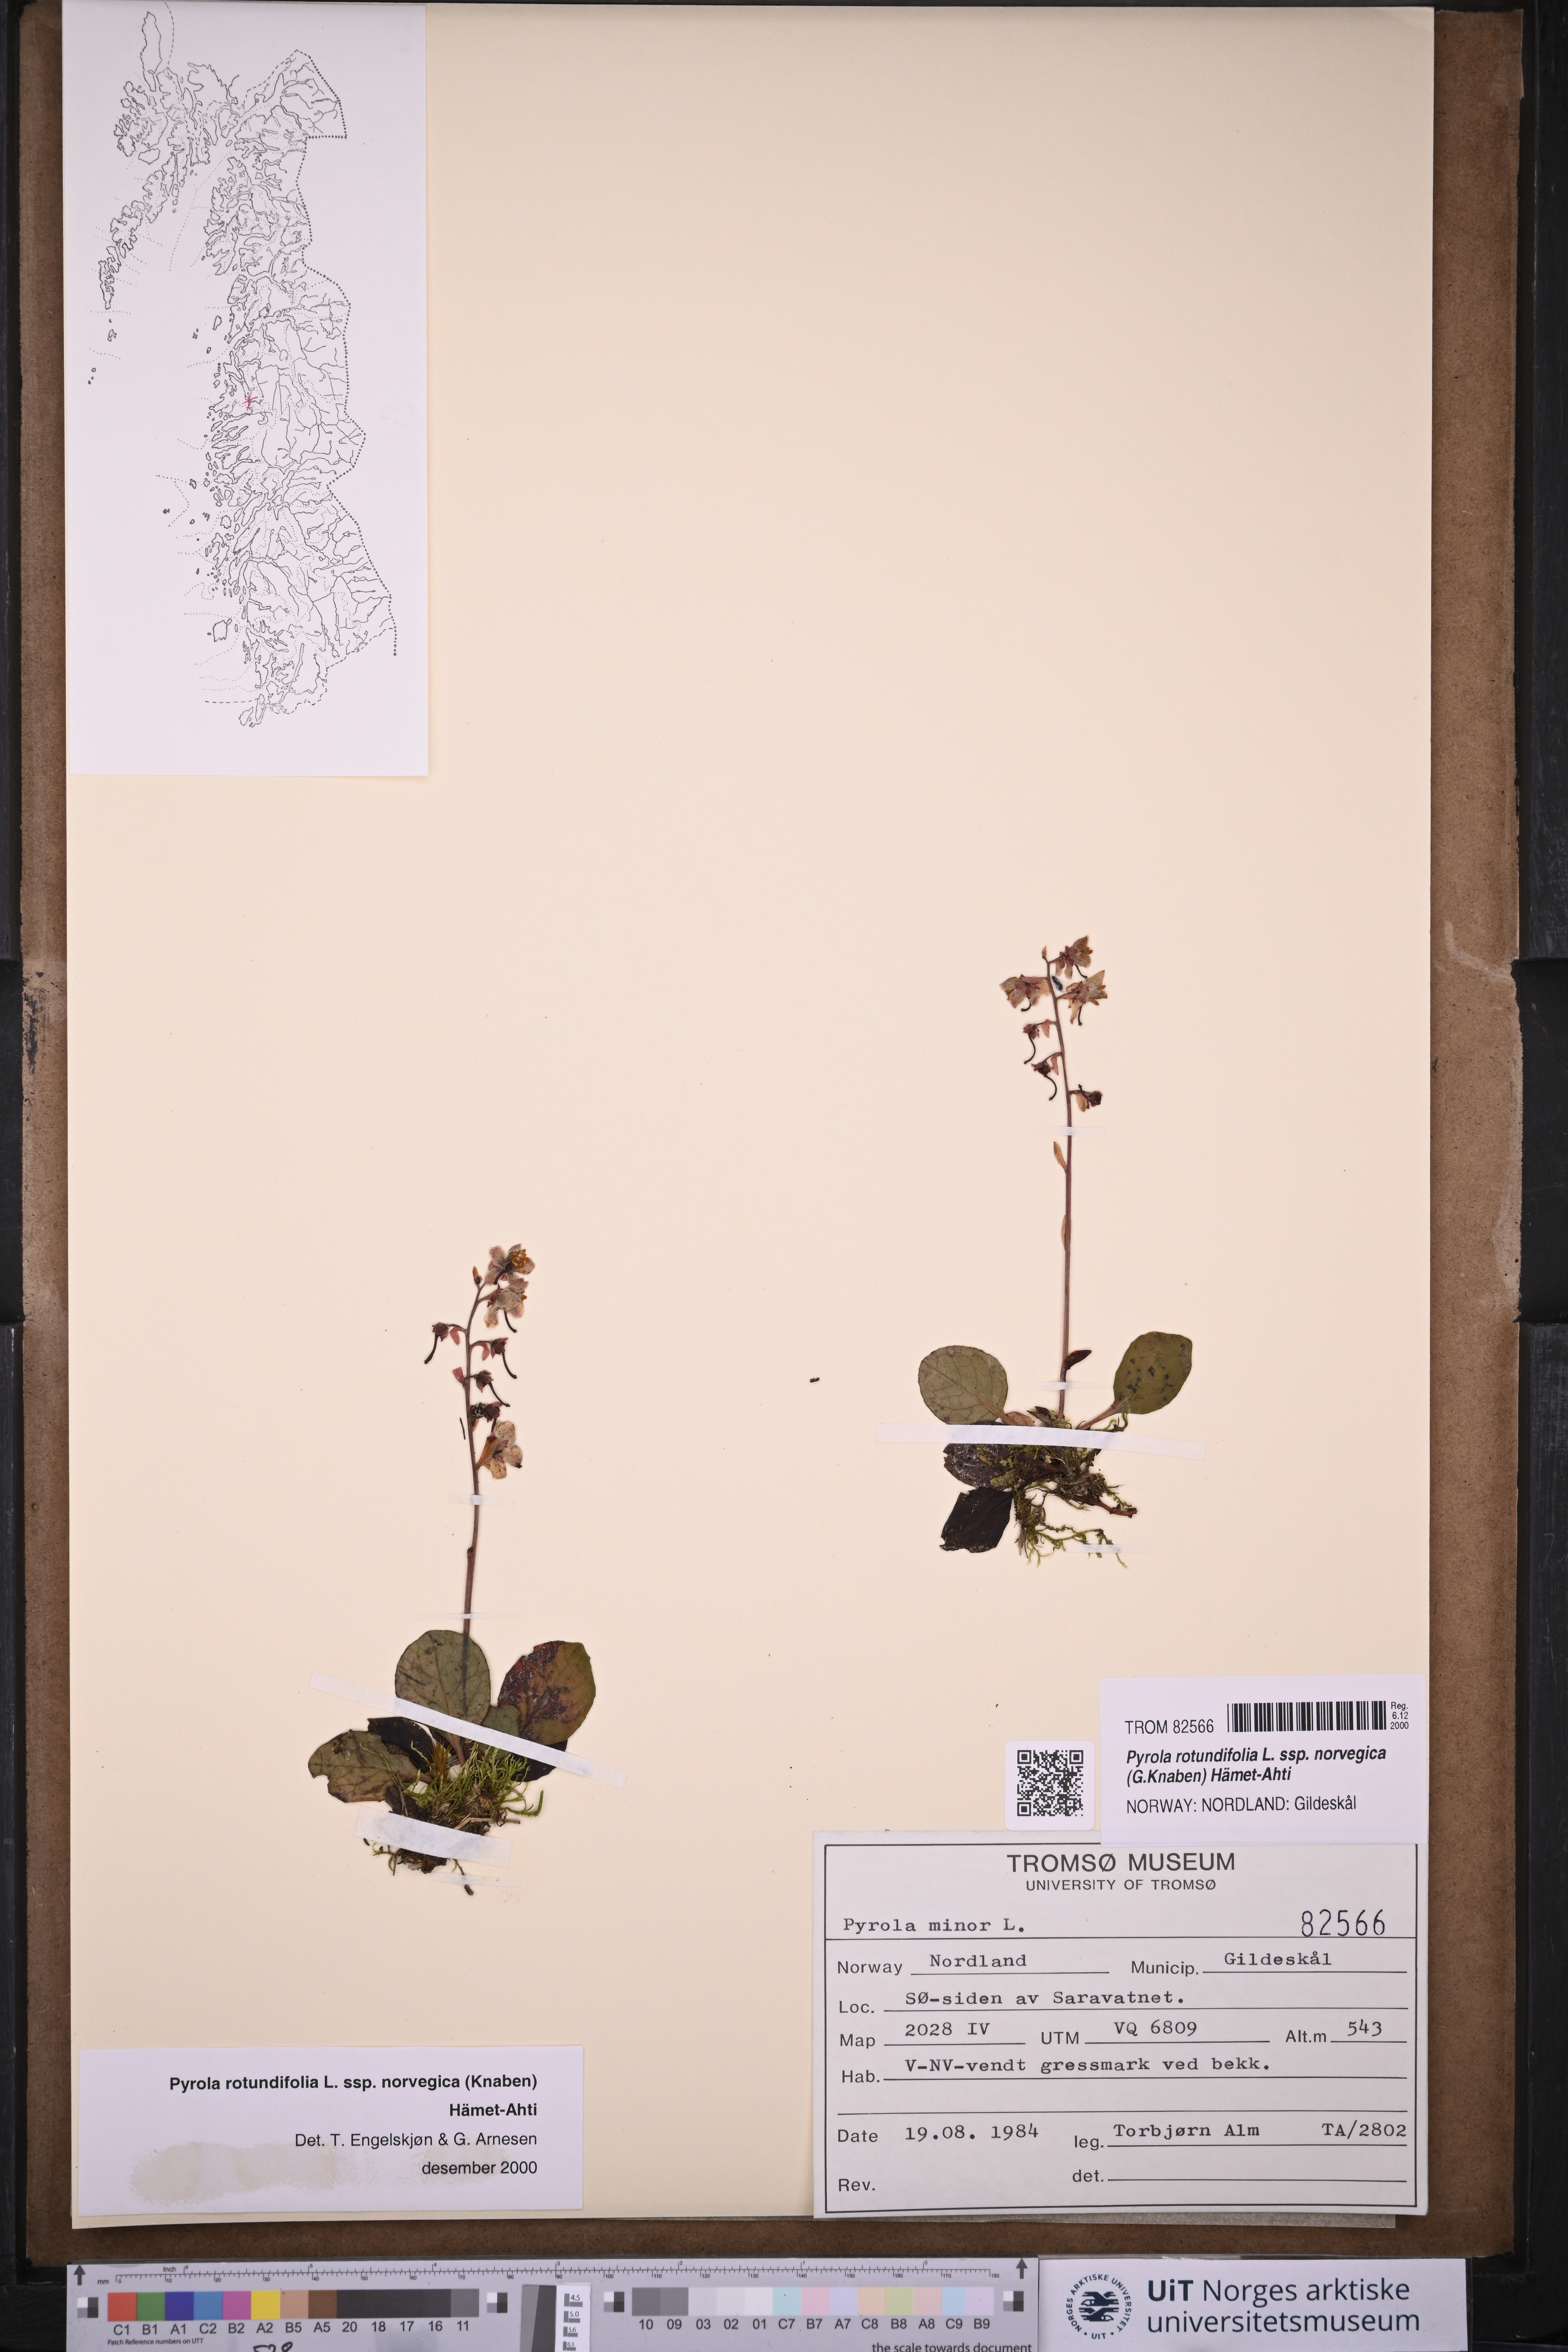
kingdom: Plantae
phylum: Tracheophyta
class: Magnoliopsida
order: Ericales
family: Ericaceae
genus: Pyrola
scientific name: Pyrola rotundifolia
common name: Round-leaved wintergreen
